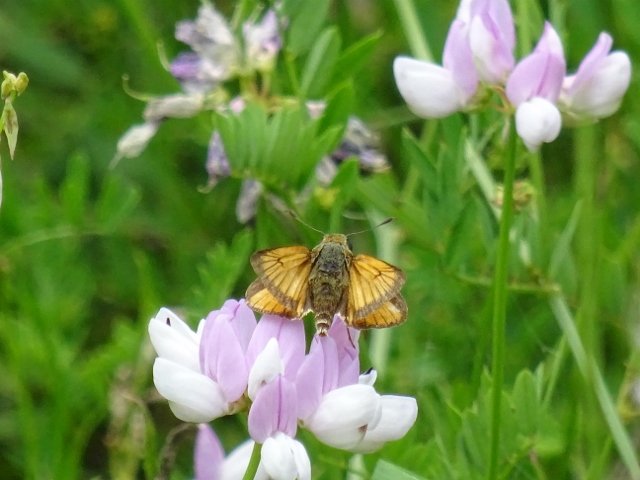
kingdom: Animalia
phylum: Arthropoda
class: Insecta
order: Lepidoptera
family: Hesperiidae
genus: Atrytone
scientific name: Atrytone delaware
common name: Delaware Skipper
